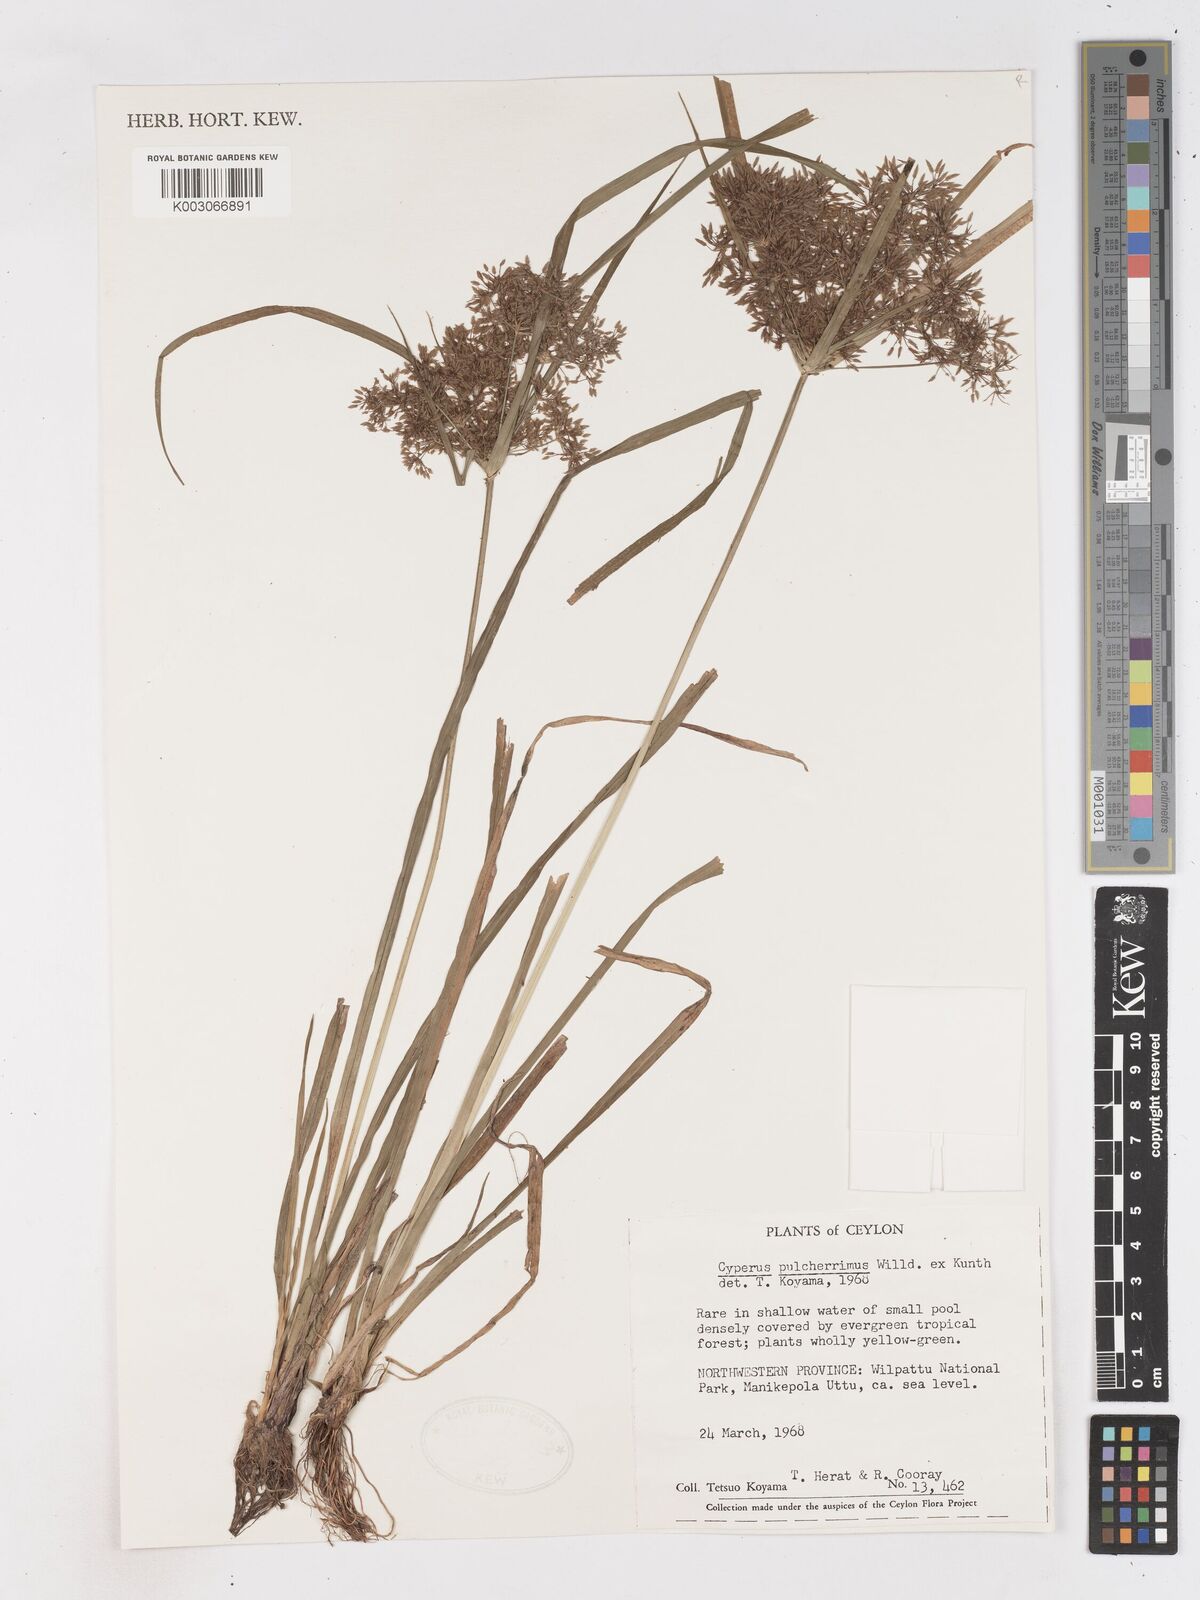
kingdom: Plantae
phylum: Tracheophyta
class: Liliopsida
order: Poales
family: Cyperaceae
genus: Cyperus
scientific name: Cyperus pulcherrimus
